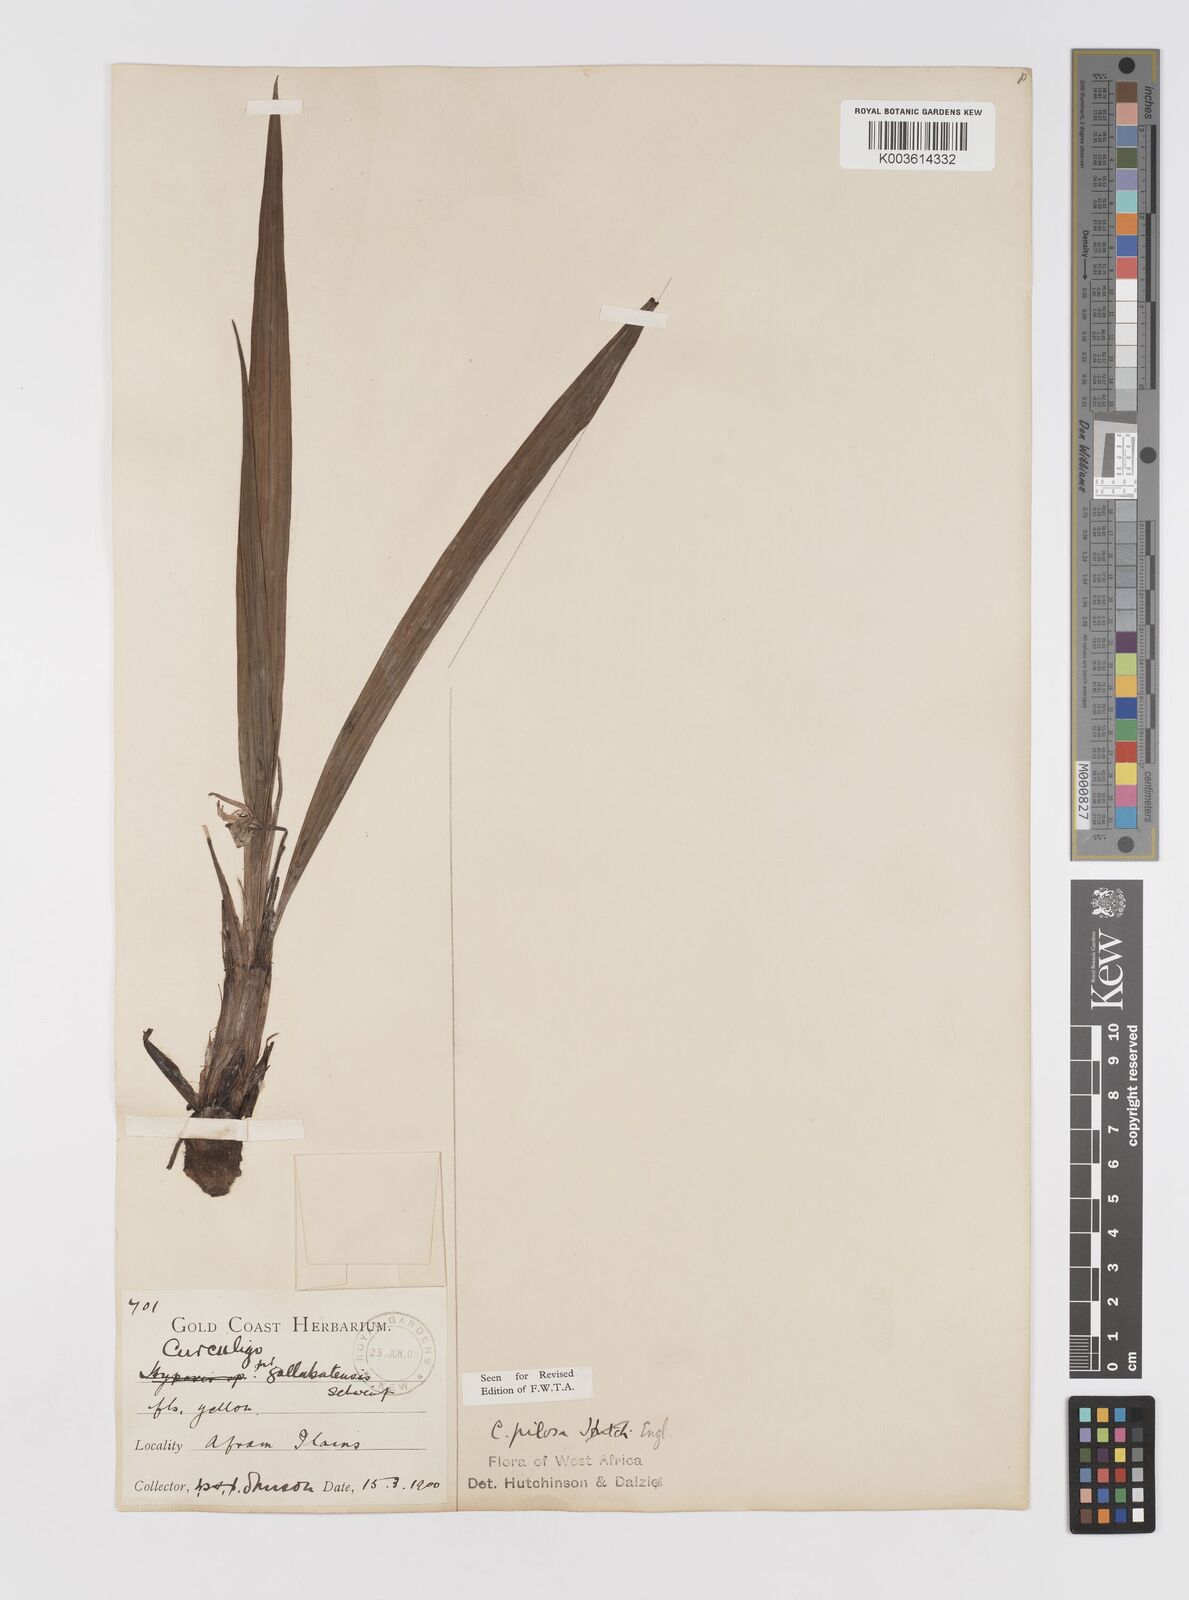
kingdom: Plantae
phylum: Tracheophyta
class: Liliopsida
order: Asparagales
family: Hypoxidaceae
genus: Curculigo
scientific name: Curculigo pilosa
